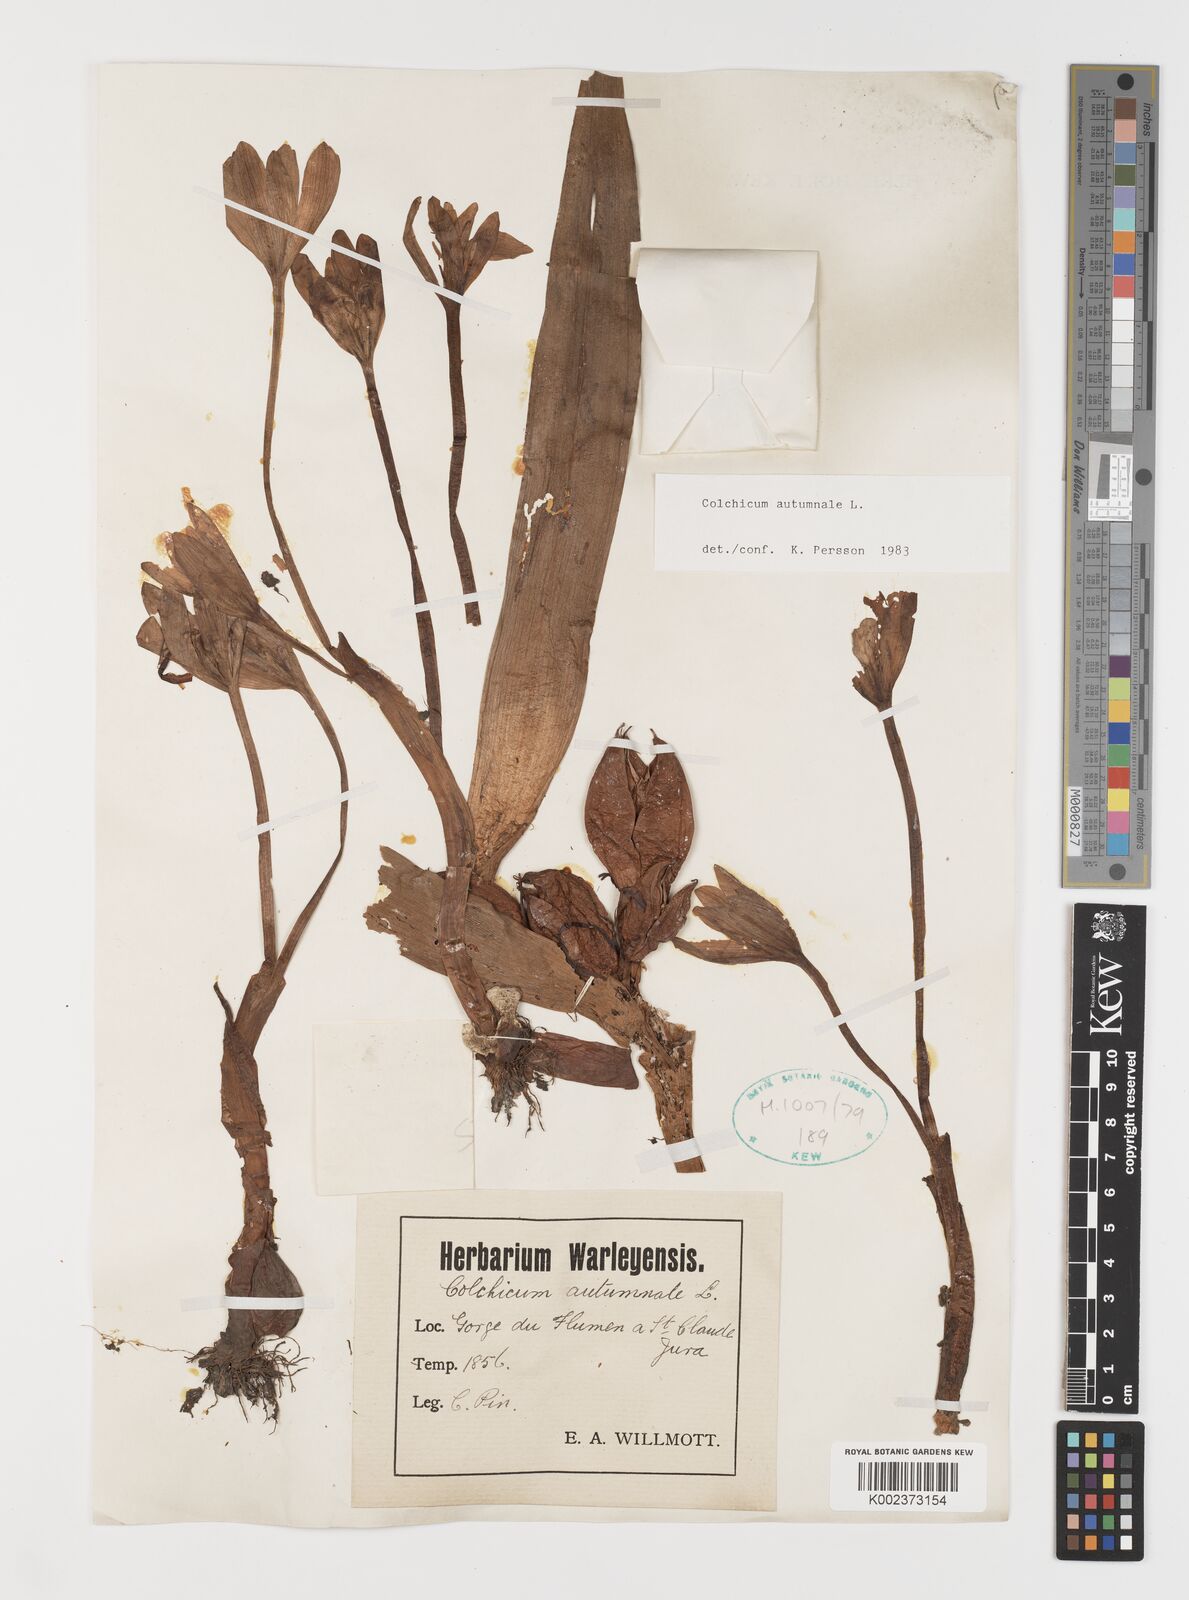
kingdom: Plantae
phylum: Tracheophyta
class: Liliopsida
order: Liliales
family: Colchicaceae
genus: Colchicum
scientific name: Colchicum autumnale
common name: Autumn crocus
